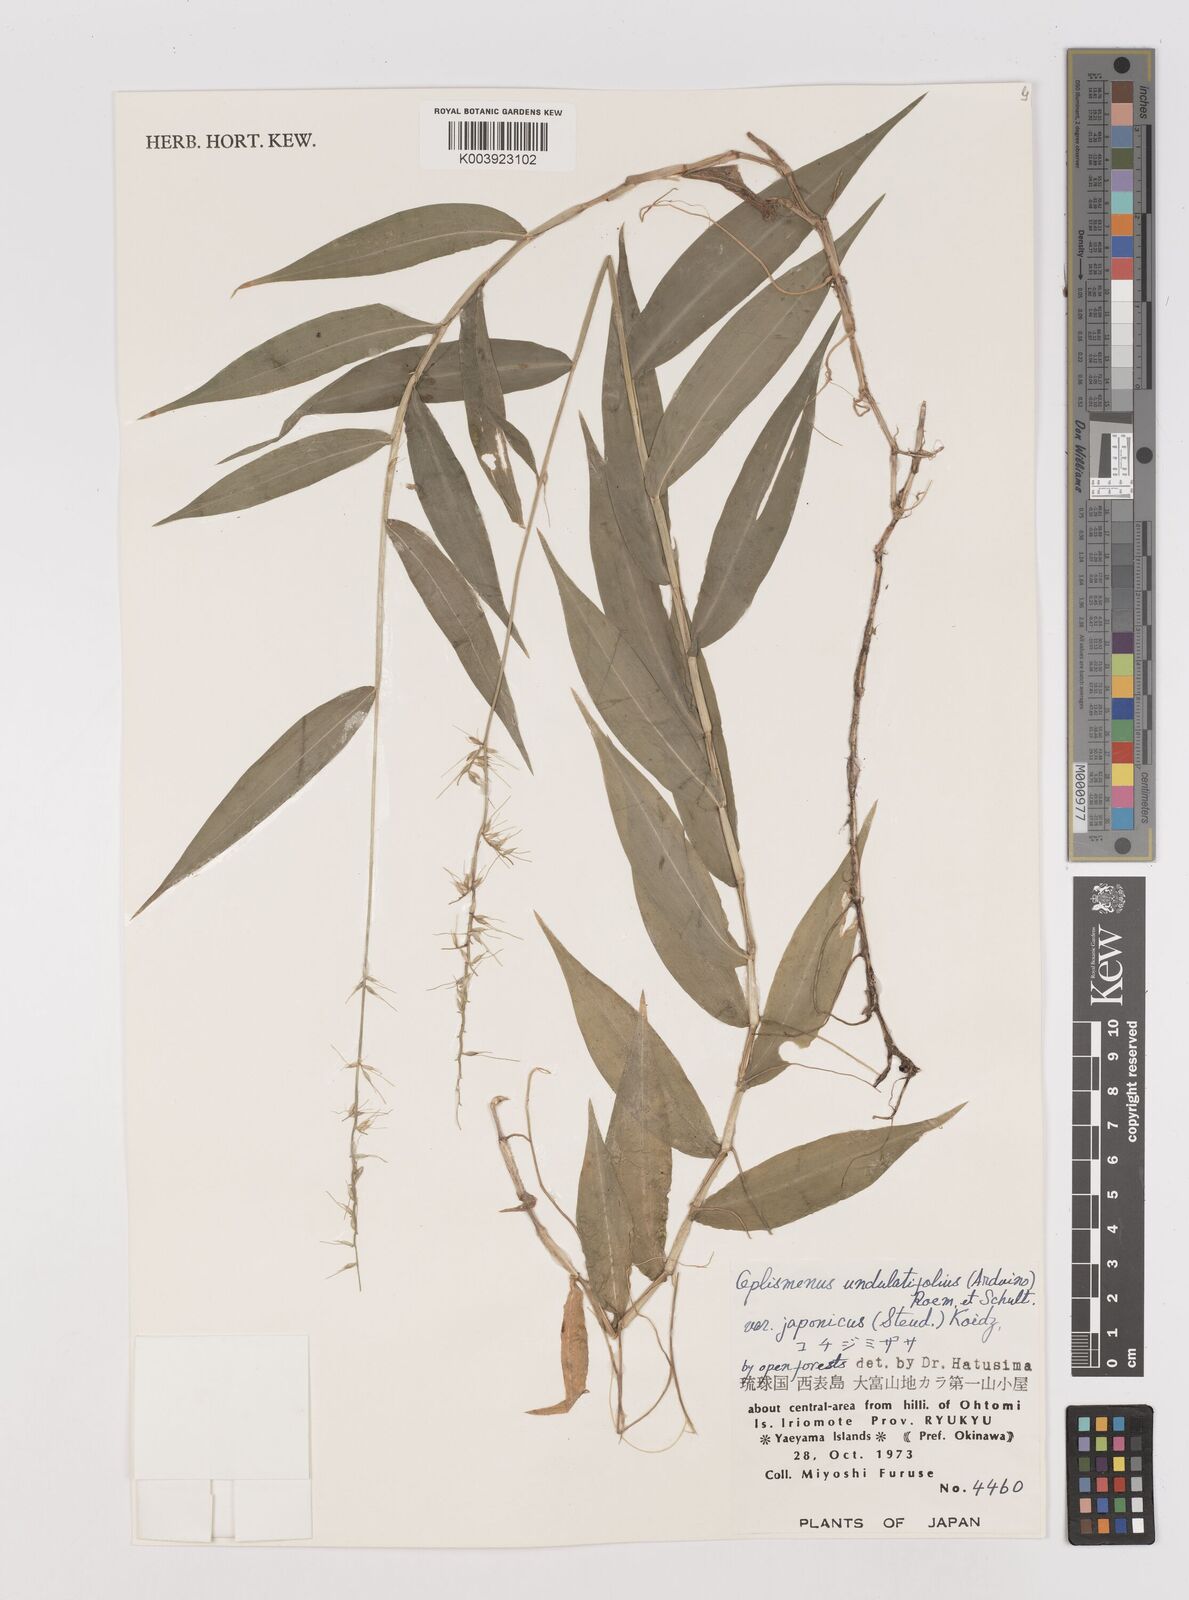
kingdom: Plantae
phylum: Tracheophyta
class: Liliopsida
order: Poales
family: Poaceae
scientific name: Poaceae
